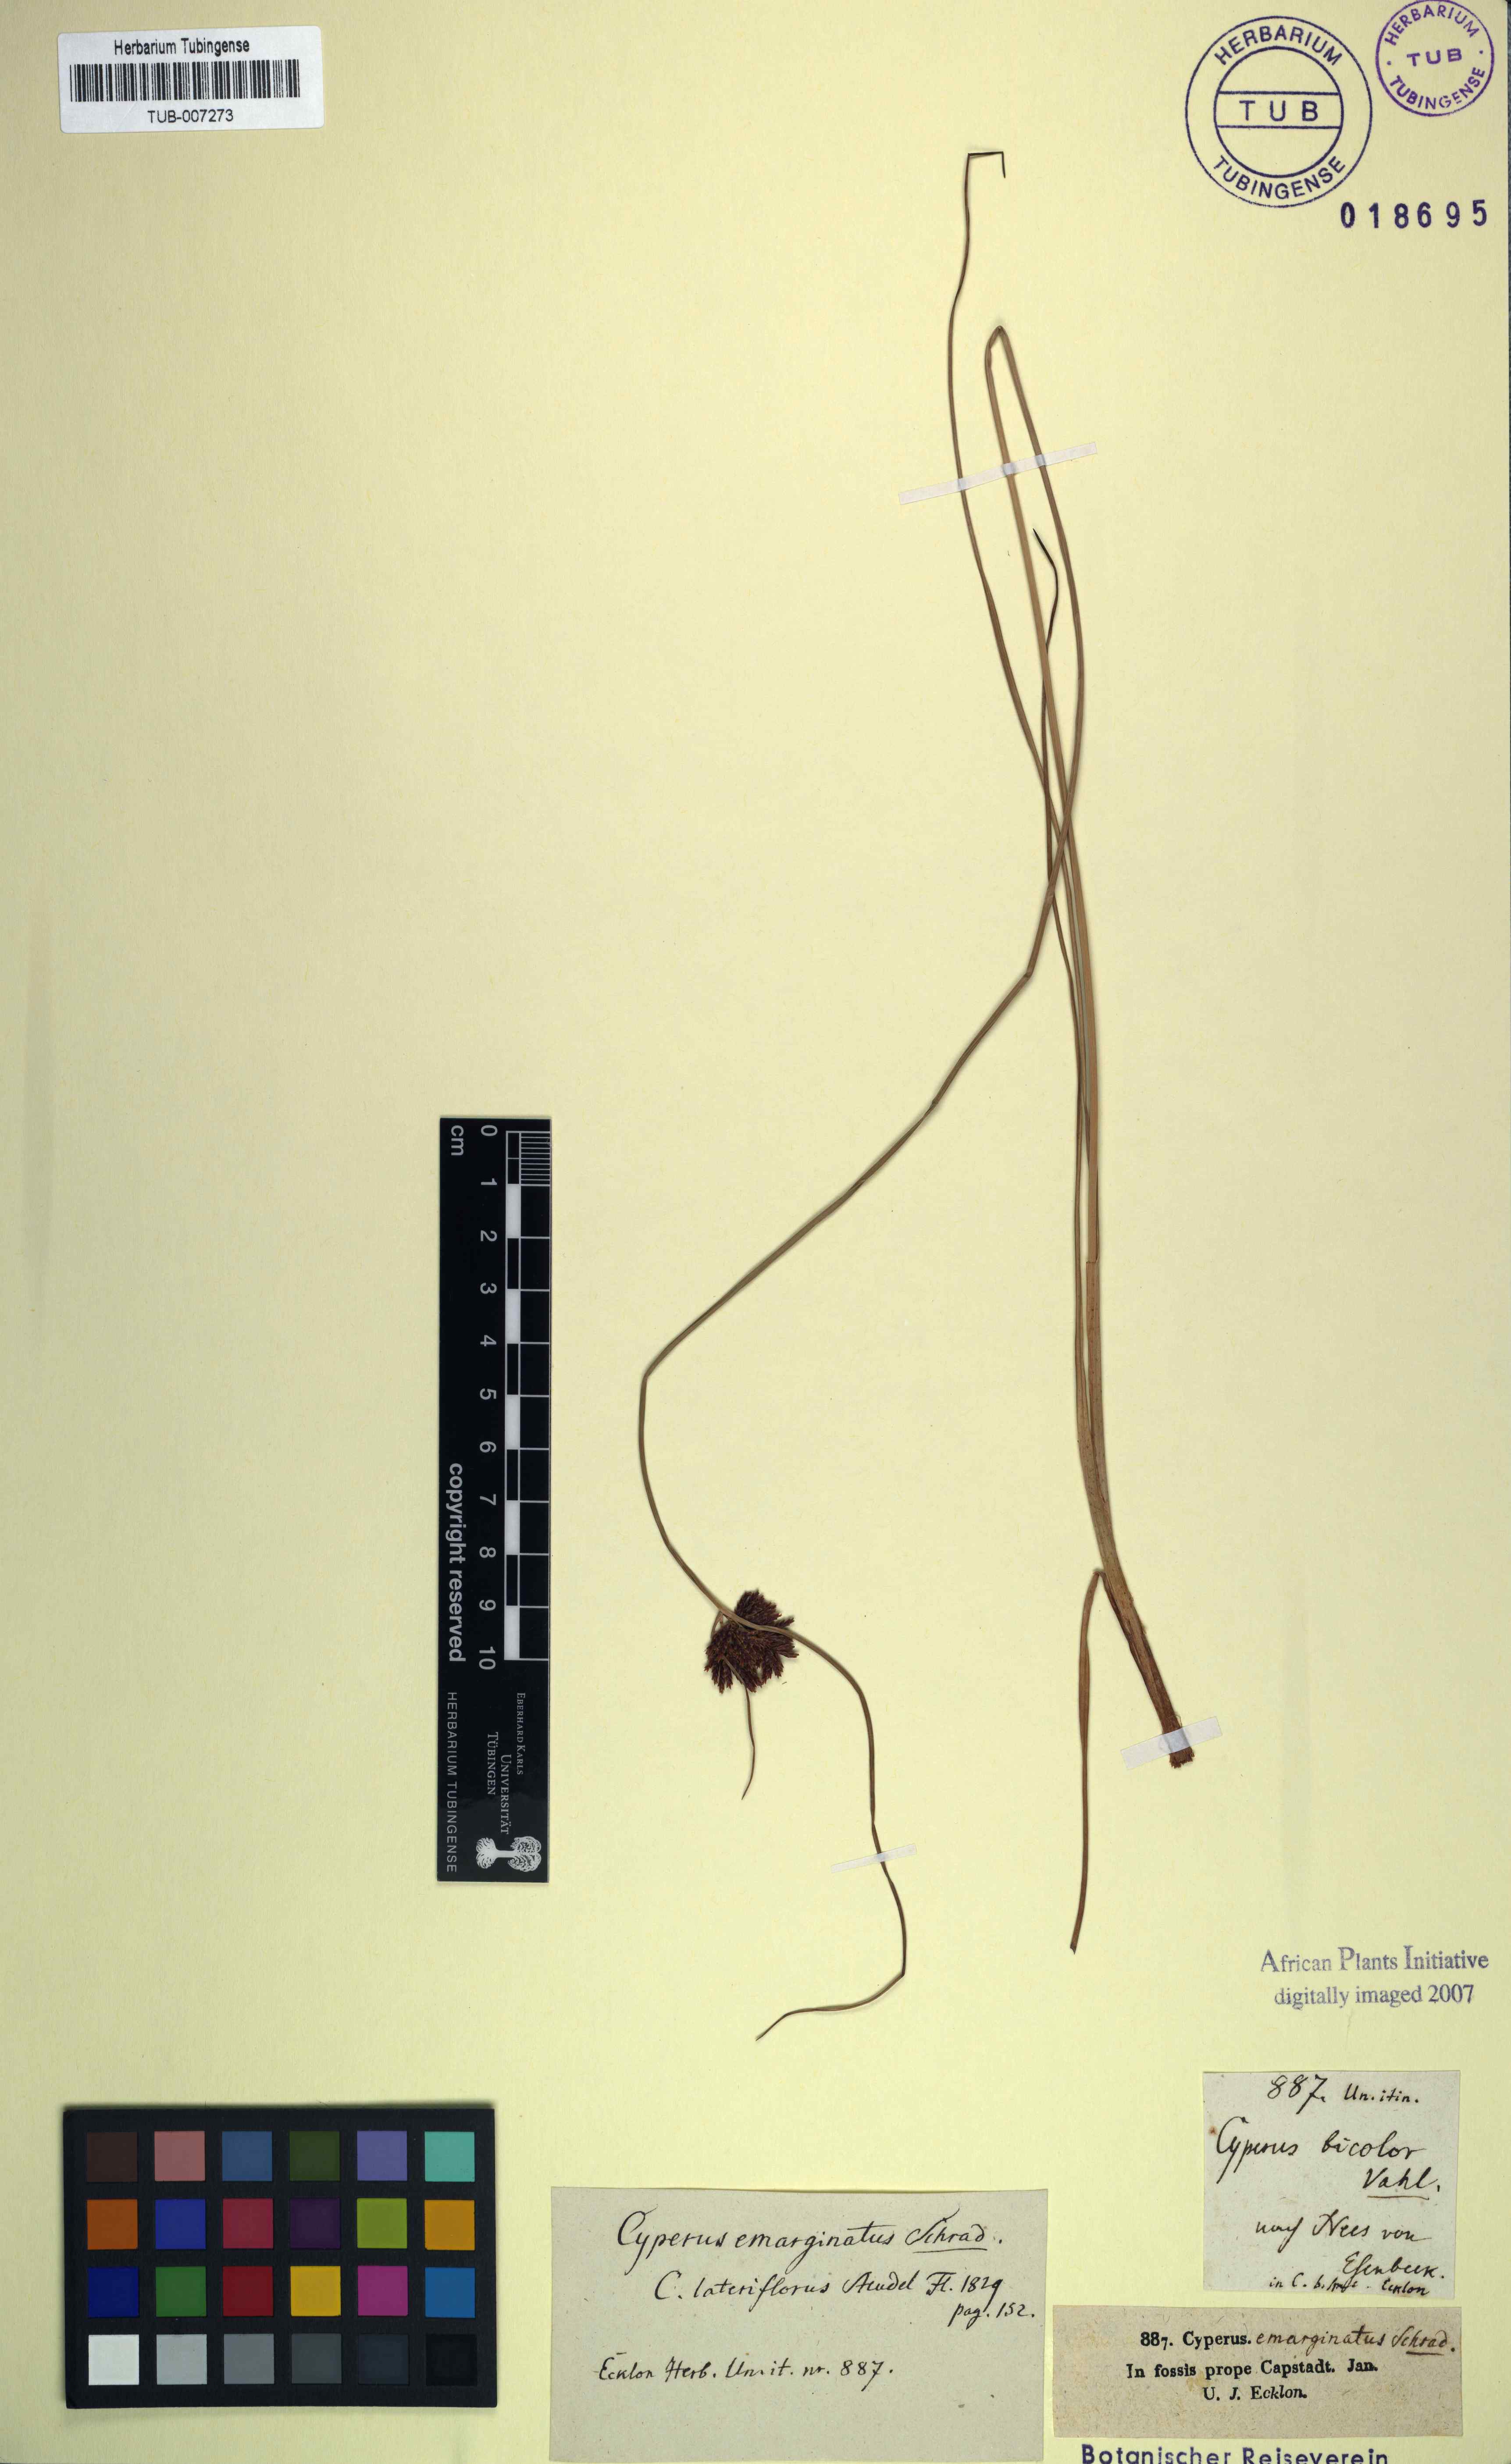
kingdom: Plantae
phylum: Tracheophyta
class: Liliopsida
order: Poales
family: Cyperaceae
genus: Cyperus
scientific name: Cyperus longus
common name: Galingale
